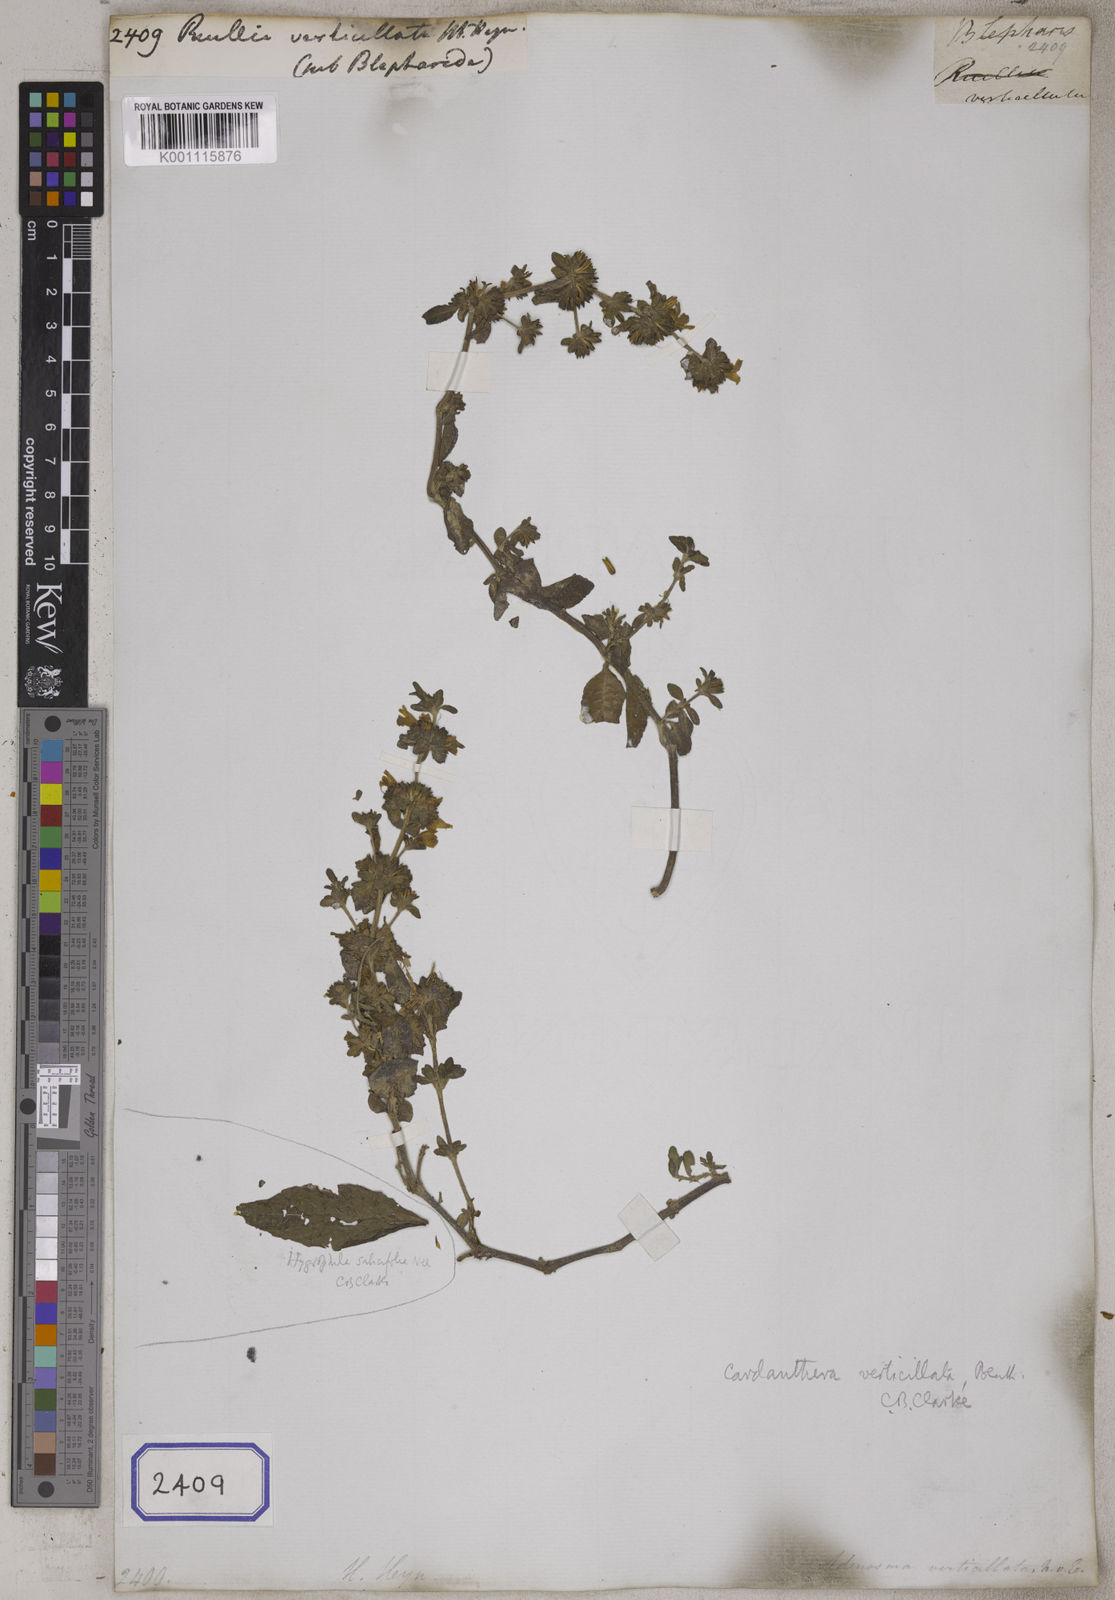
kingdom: Plantae
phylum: Tracheophyta
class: Magnoliopsida
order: Lamiales
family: Acanthaceae
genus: Hygrophila
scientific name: Hygrophila costata
